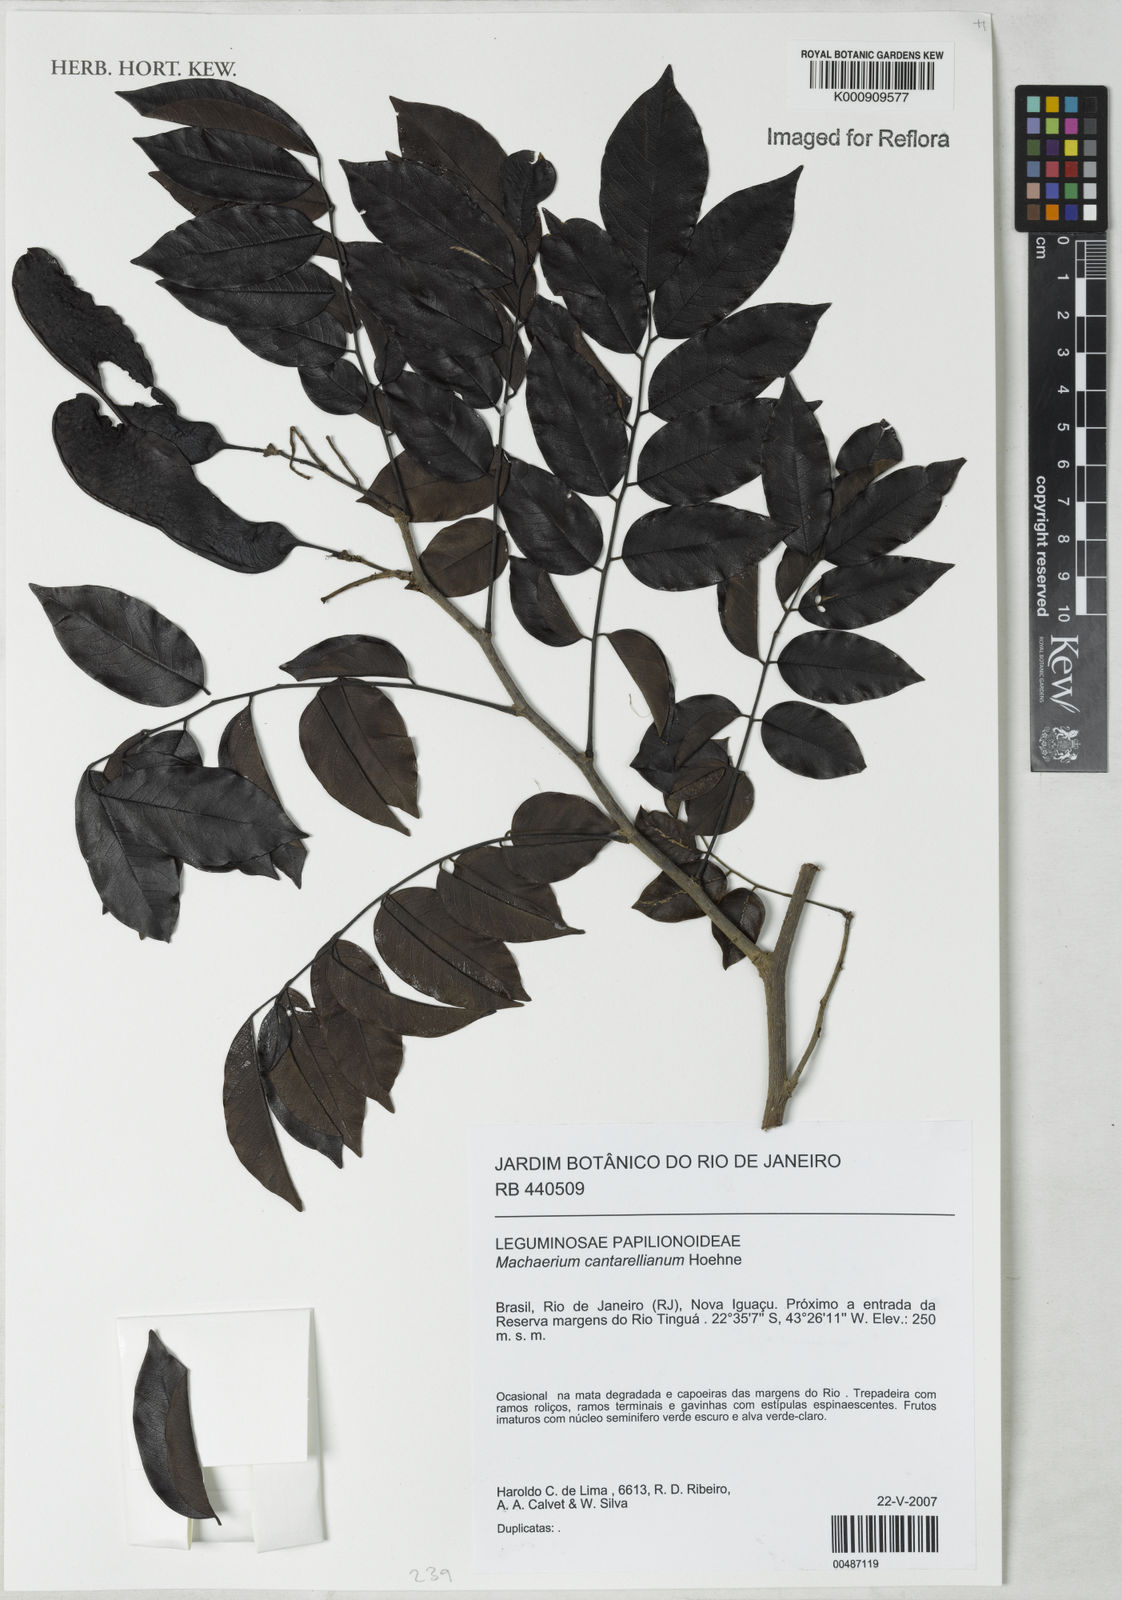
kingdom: Plantae
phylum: Tracheophyta
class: Magnoliopsida
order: Fabales
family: Fabaceae
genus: Machaerium
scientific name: Machaerium cantarellianum
